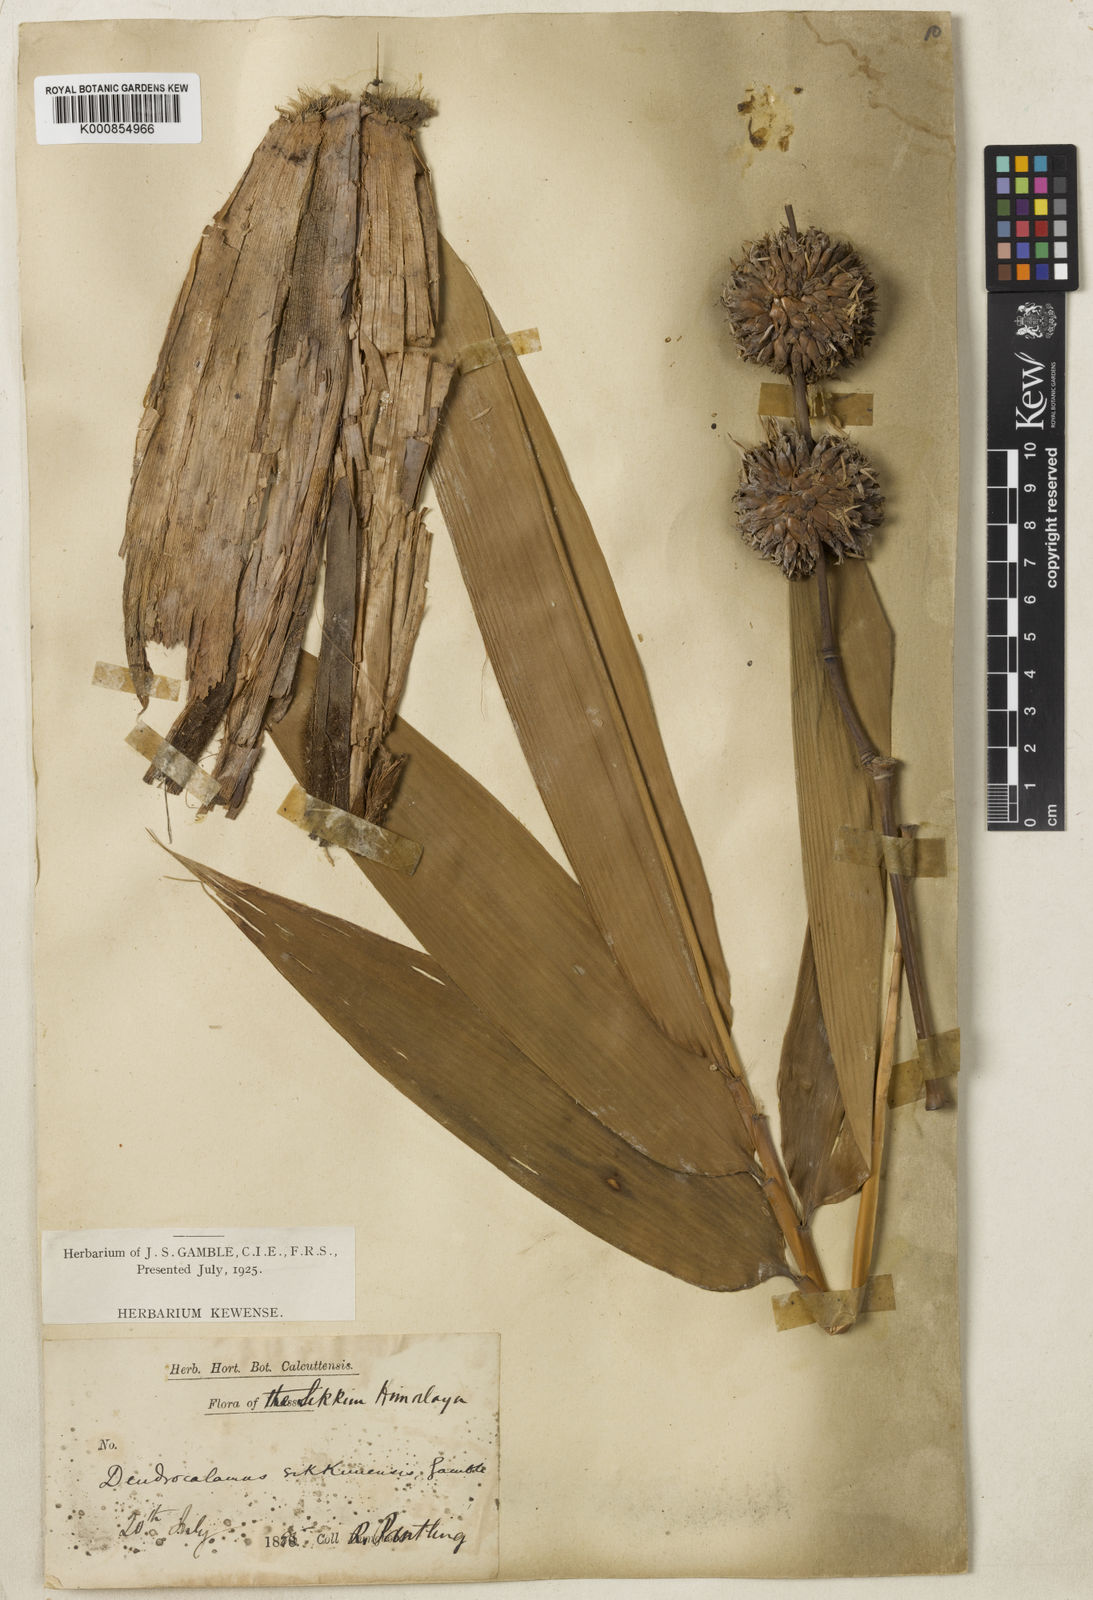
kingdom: Plantae
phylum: Tracheophyta
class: Liliopsida
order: Poales
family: Poaceae
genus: Dendrocalamus
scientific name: Dendrocalamus sikkimensis
